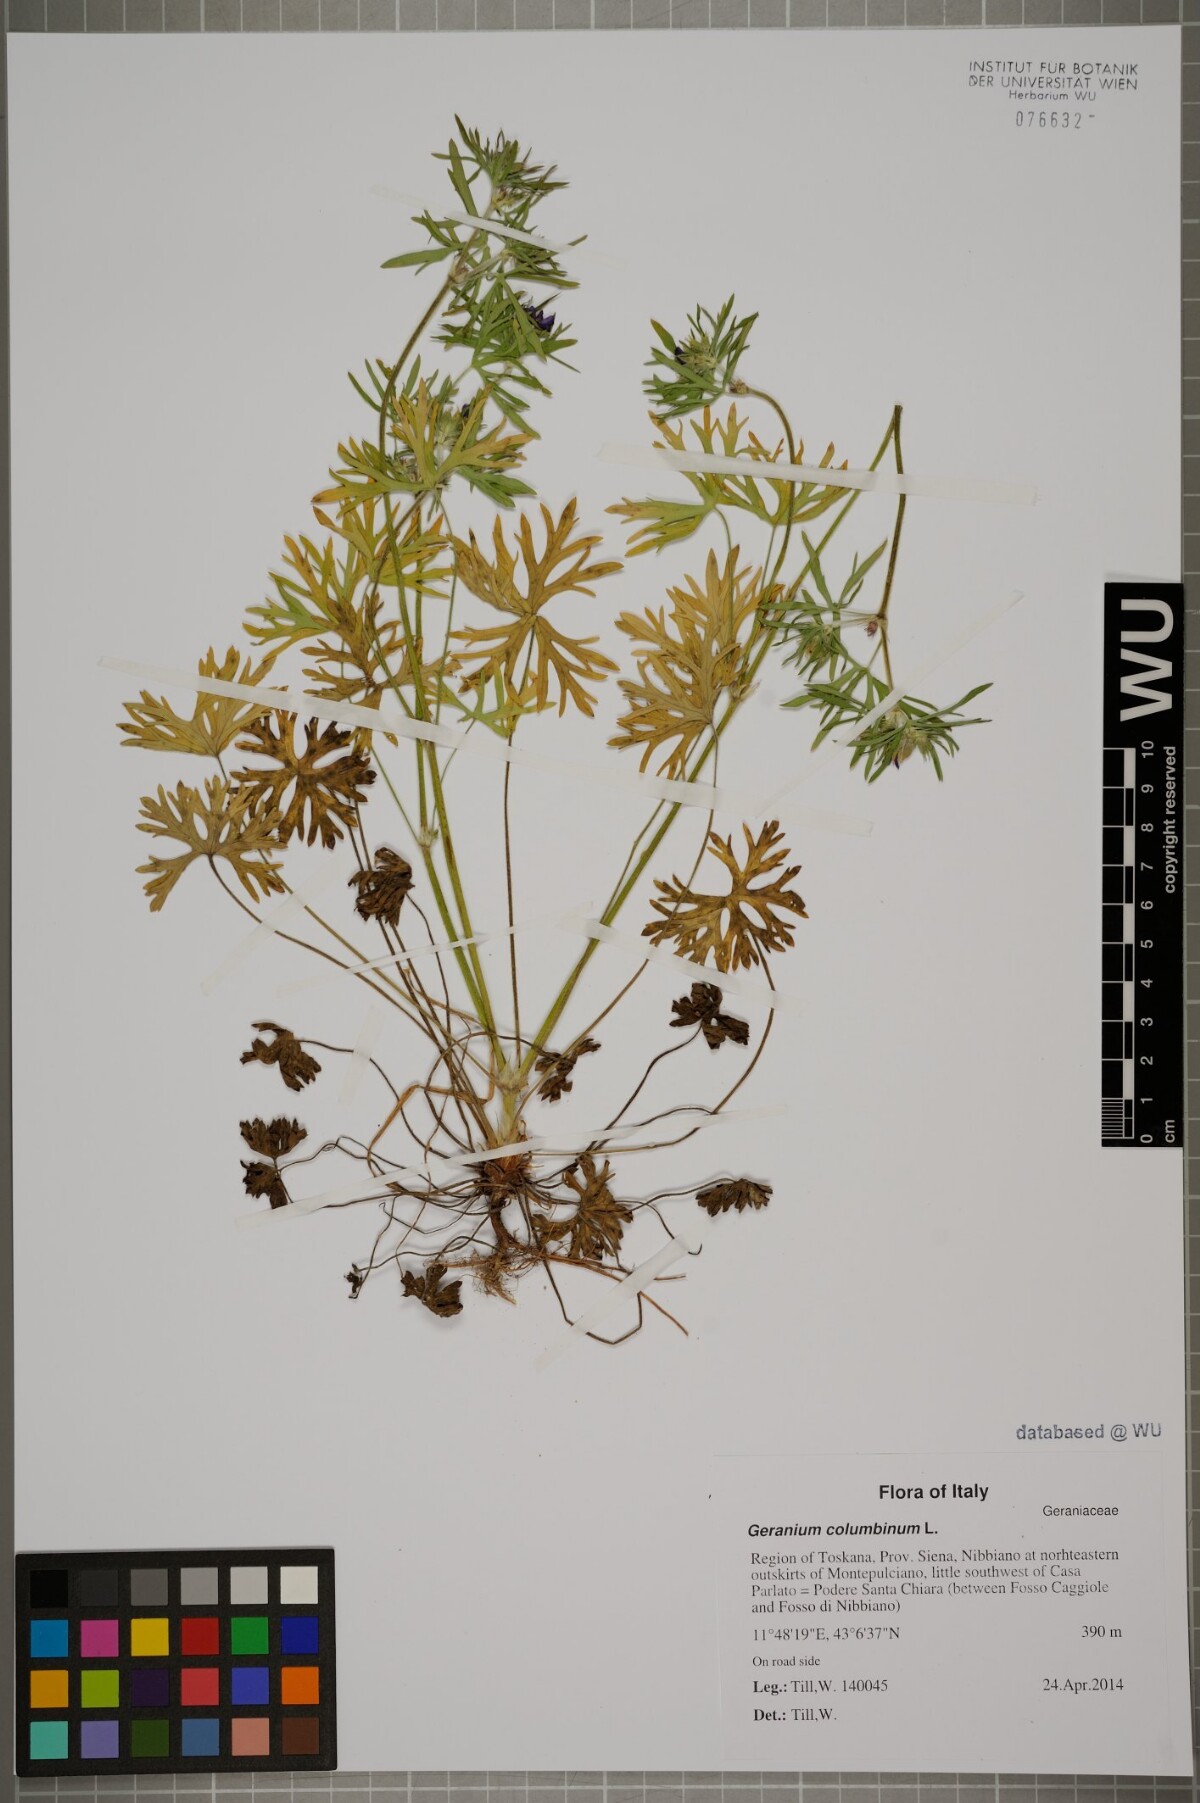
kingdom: Plantae
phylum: Tracheophyta
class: Magnoliopsida
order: Geraniales
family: Geraniaceae
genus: Geranium
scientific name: Geranium columbinum
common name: Long-stalked crane's-bill
